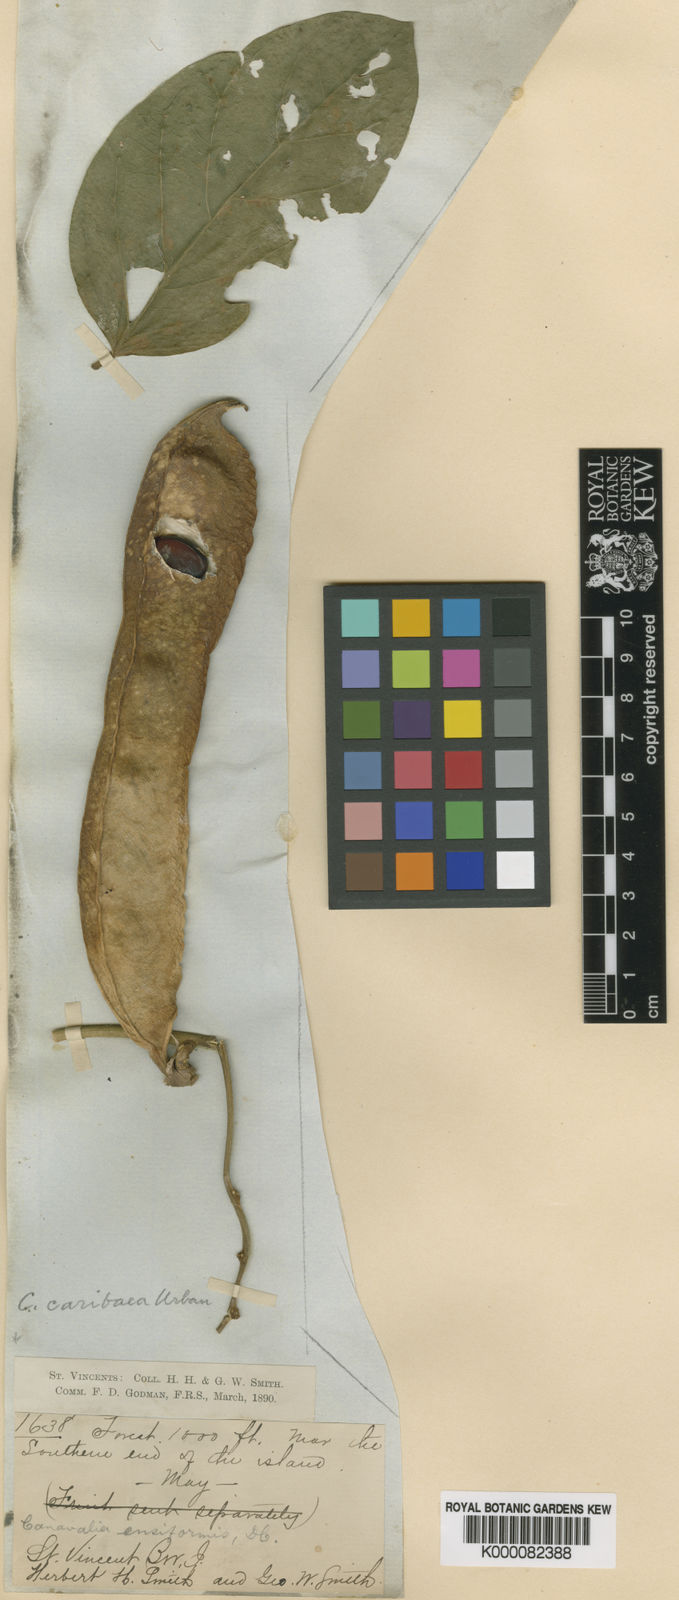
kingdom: Plantae
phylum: Tracheophyta
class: Magnoliopsida
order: Fabales
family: Fabaceae
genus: Canavalia
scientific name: Canavalia brasiliensis
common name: Barbicou-bean
